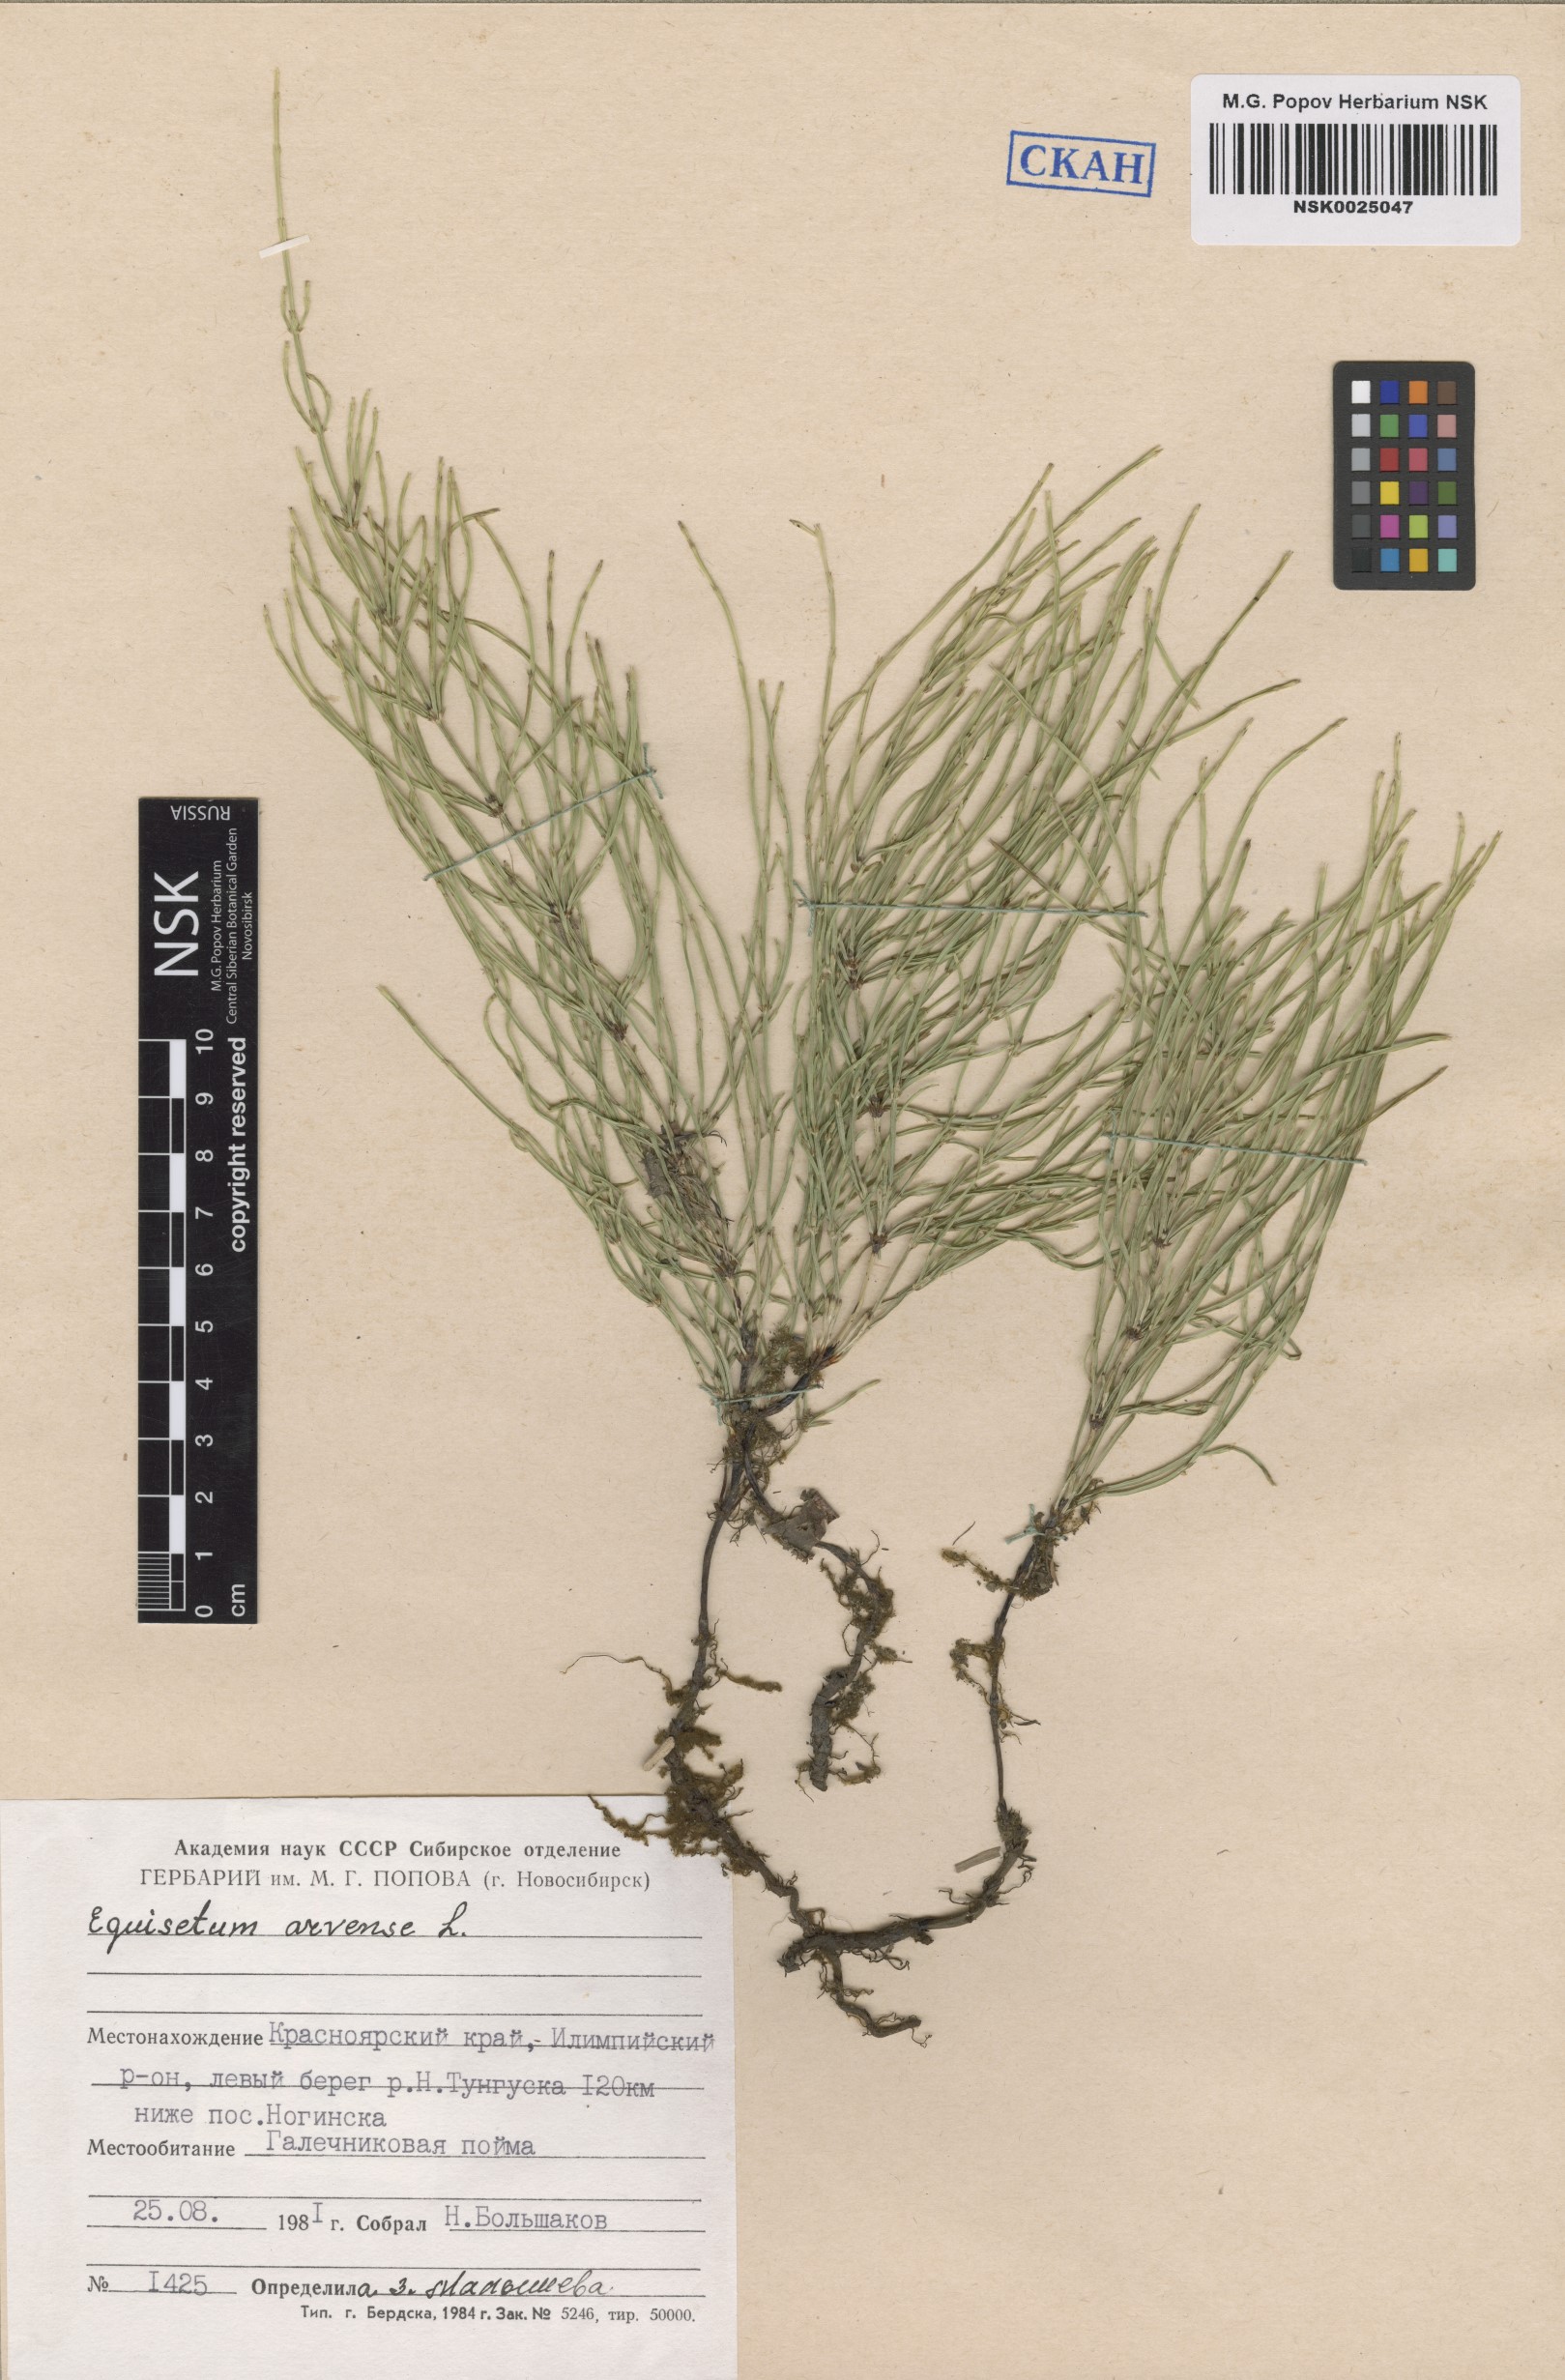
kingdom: Plantae
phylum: Tracheophyta
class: Polypodiopsida
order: Equisetales
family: Equisetaceae
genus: Equisetum
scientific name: Equisetum arvense
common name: Field horsetail
